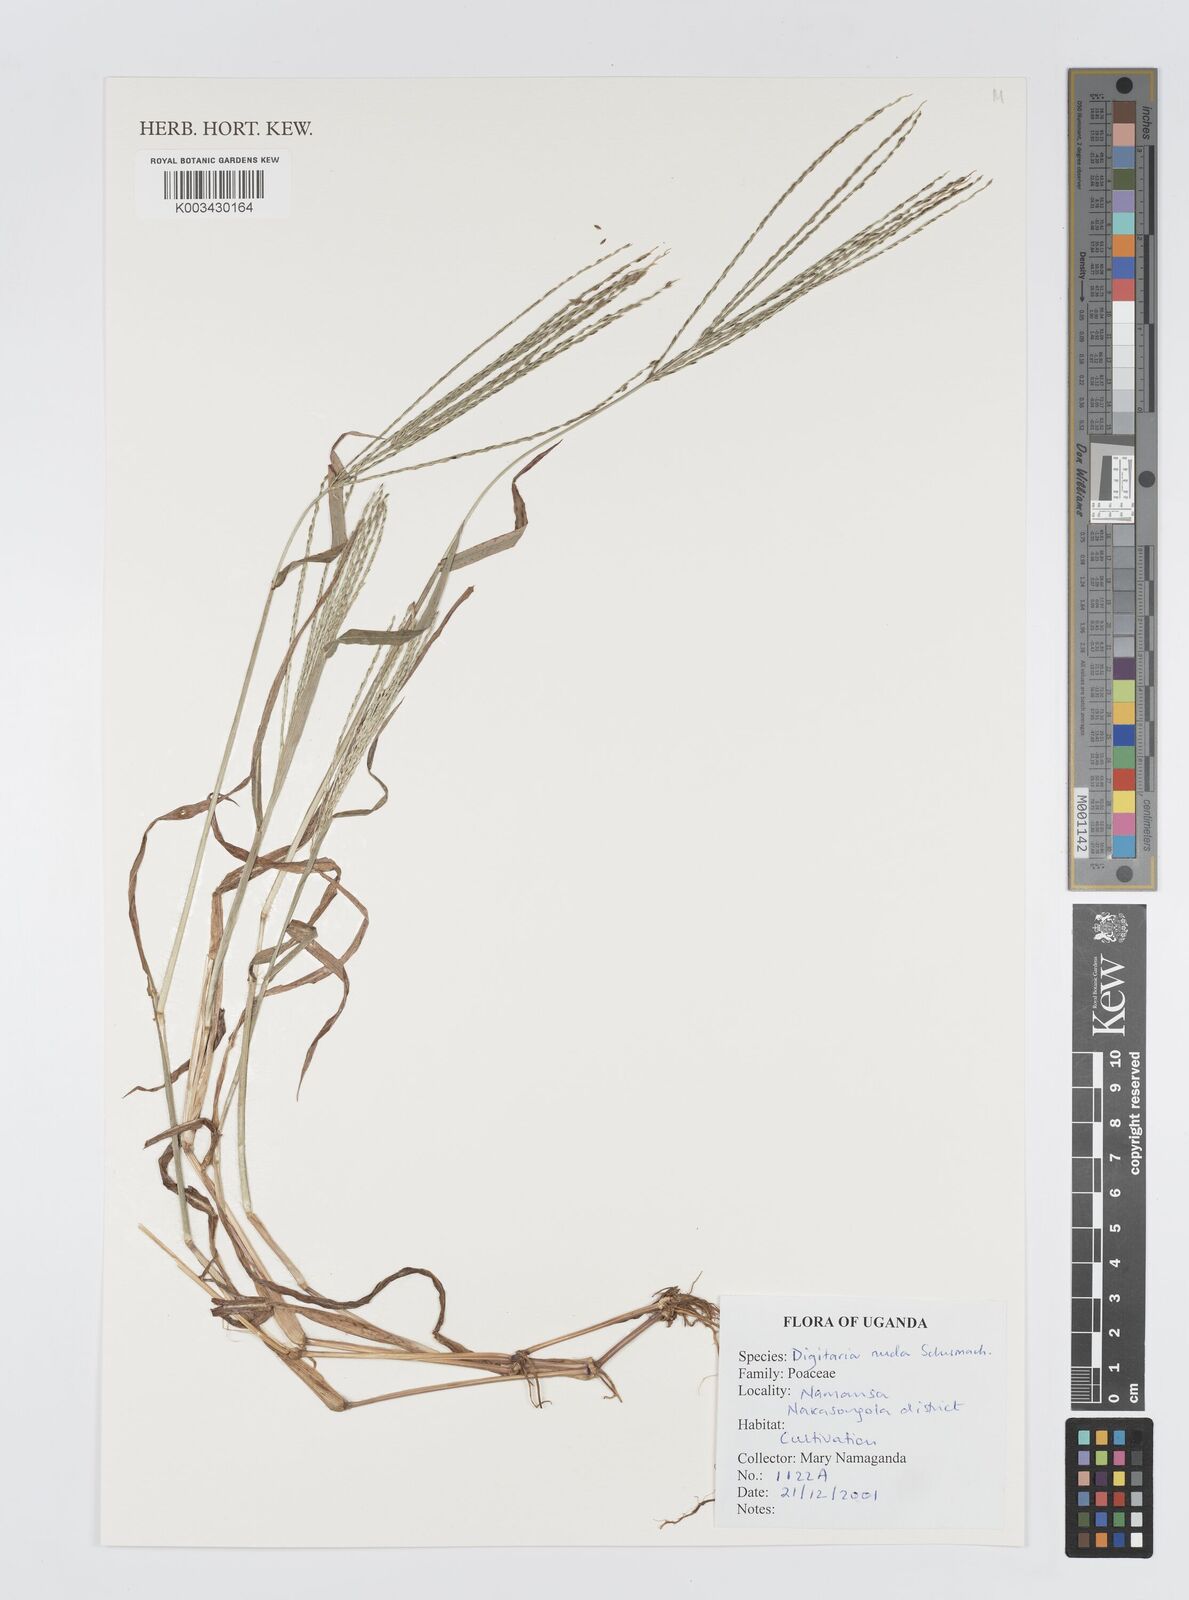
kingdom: Plantae
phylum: Tracheophyta
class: Liliopsida
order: Poales
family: Poaceae
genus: Digitaria
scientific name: Digitaria nuda
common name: Naked crabgrass
